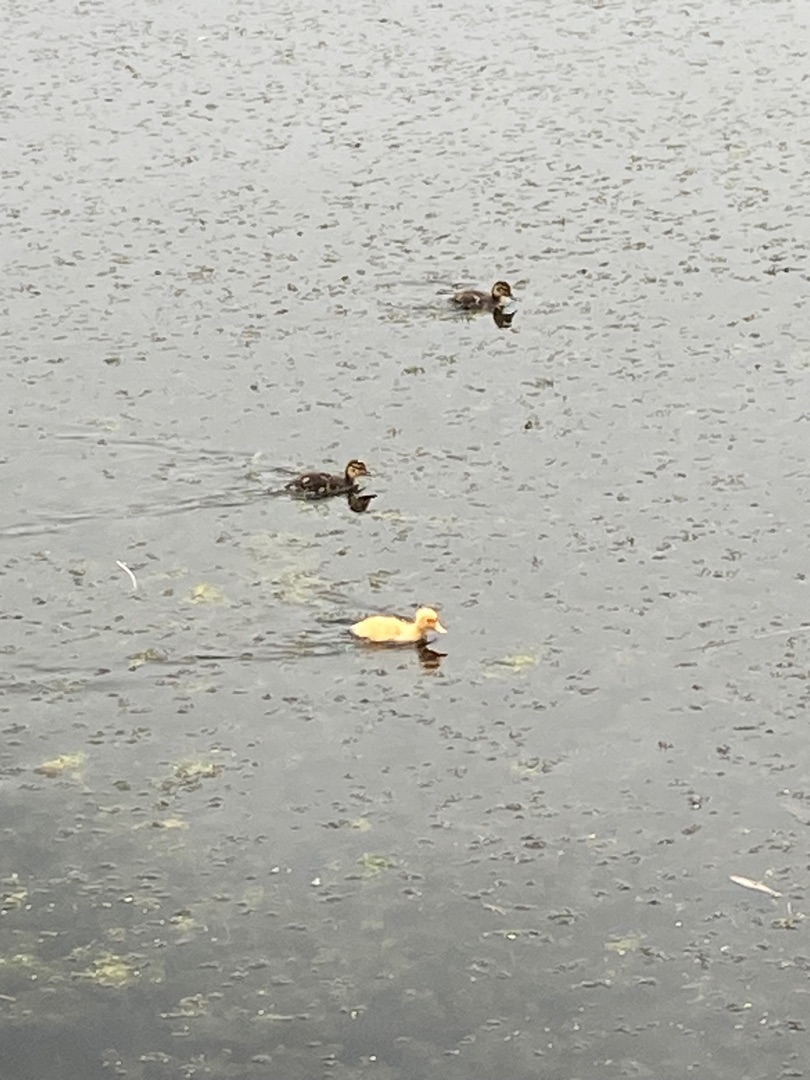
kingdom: Animalia
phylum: Chordata
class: Aves
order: Anseriformes
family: Anatidae
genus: Anas
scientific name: Anas platyrhynchos
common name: Gråand
